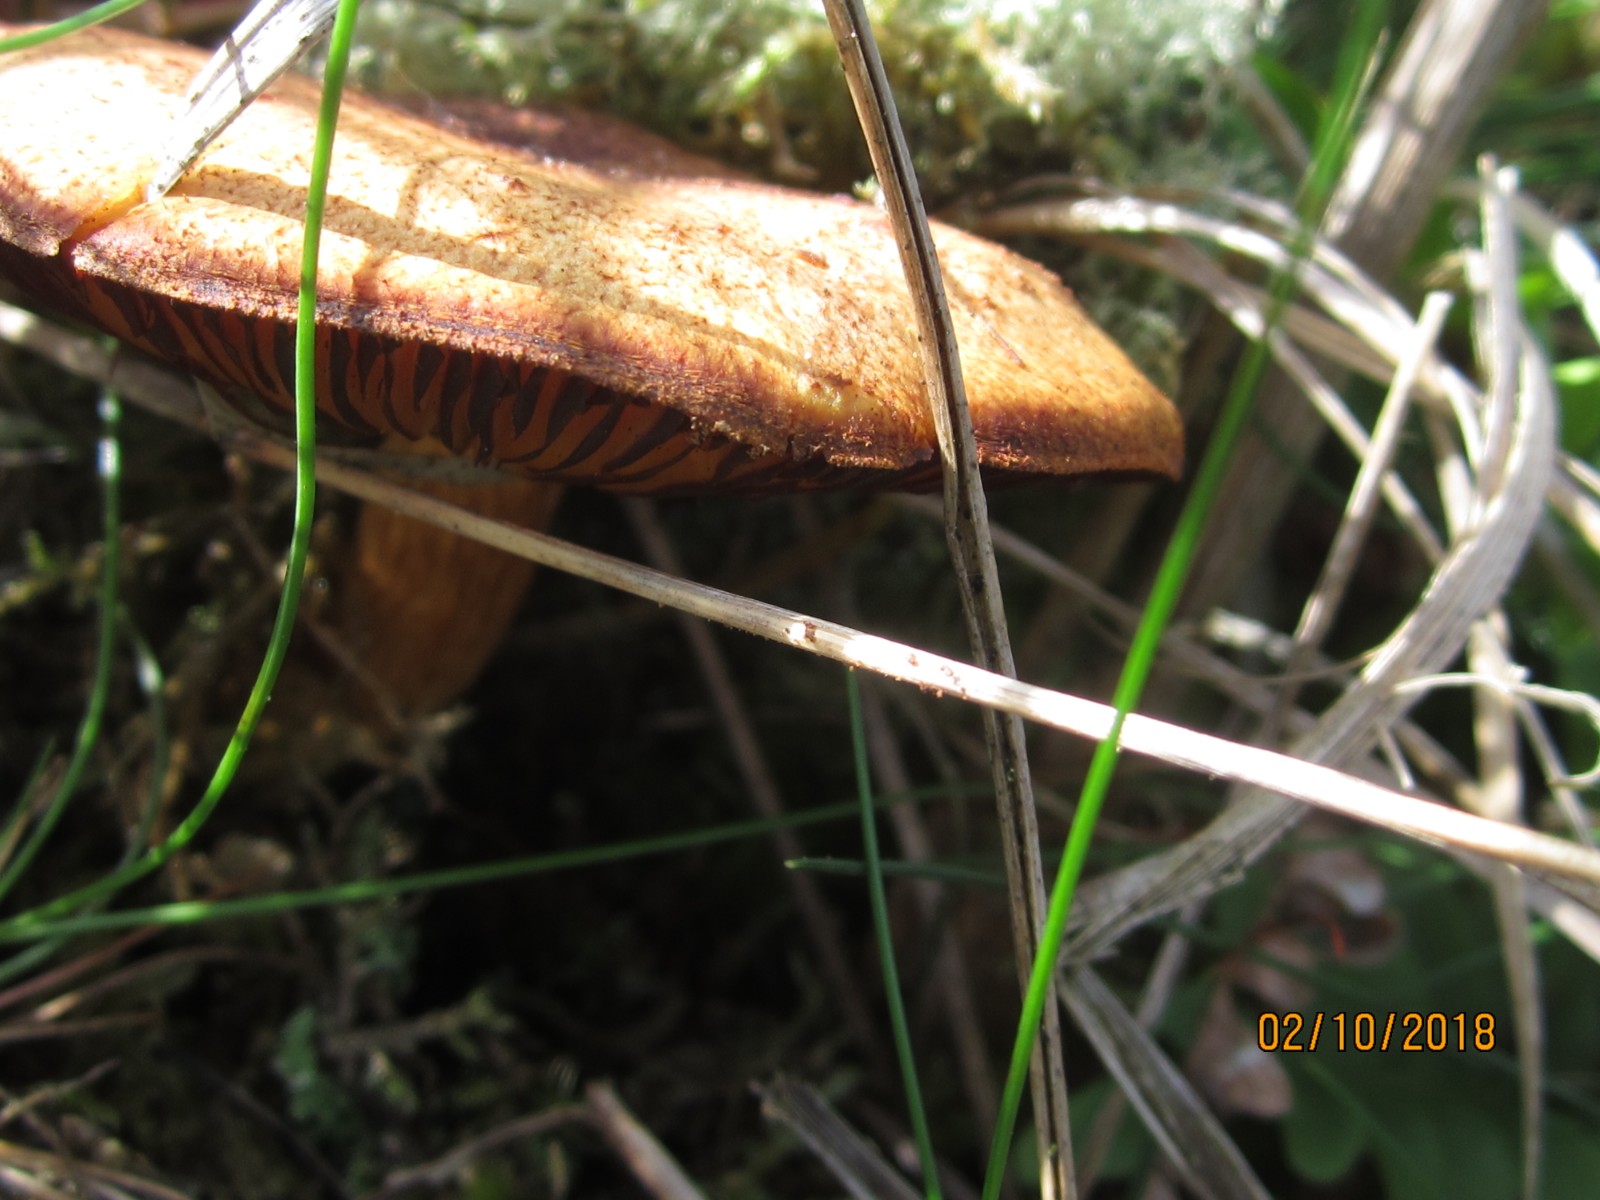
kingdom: Fungi
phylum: Basidiomycota
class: Agaricomycetes
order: Agaricales
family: Tricholomataceae
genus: Tricholomopsis
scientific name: Tricholomopsis rutilans
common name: purpur-væbnerhat
